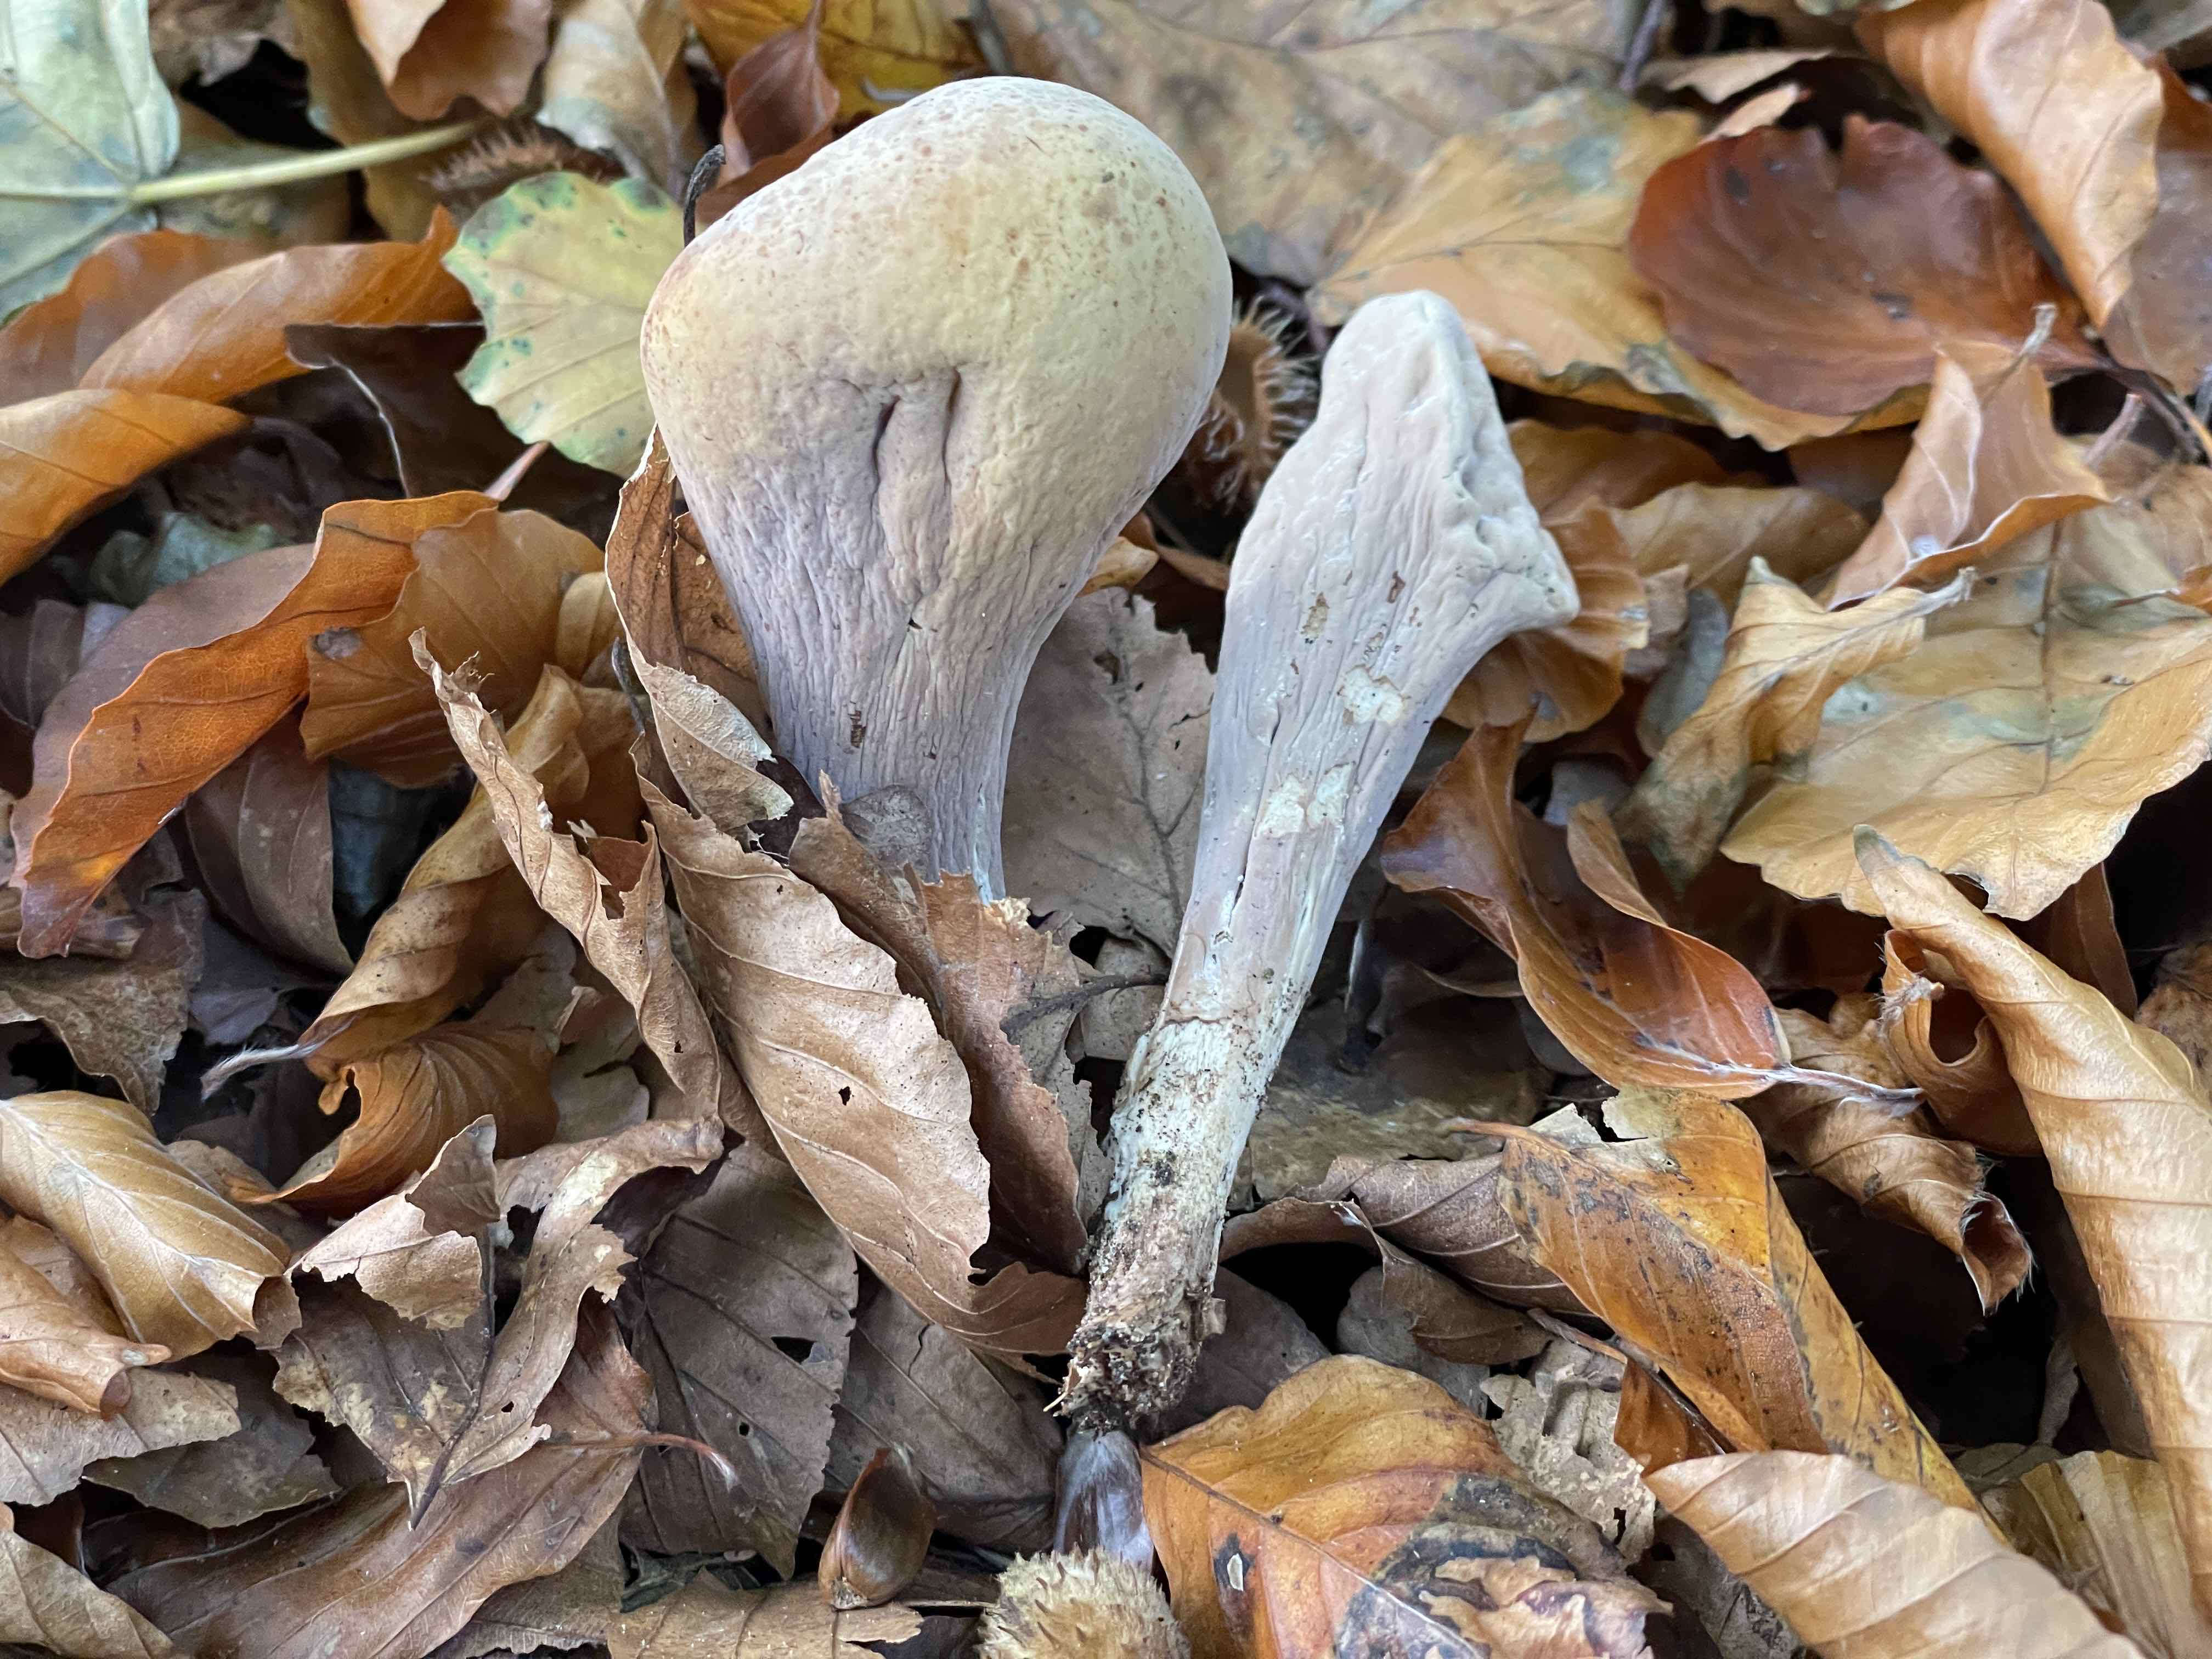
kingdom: Fungi
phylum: Basidiomycota
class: Agaricomycetes
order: Gomphales
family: Clavariadelphaceae
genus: Clavariadelphus
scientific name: Clavariadelphus pistillaris
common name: herkules-kæmpekølle
